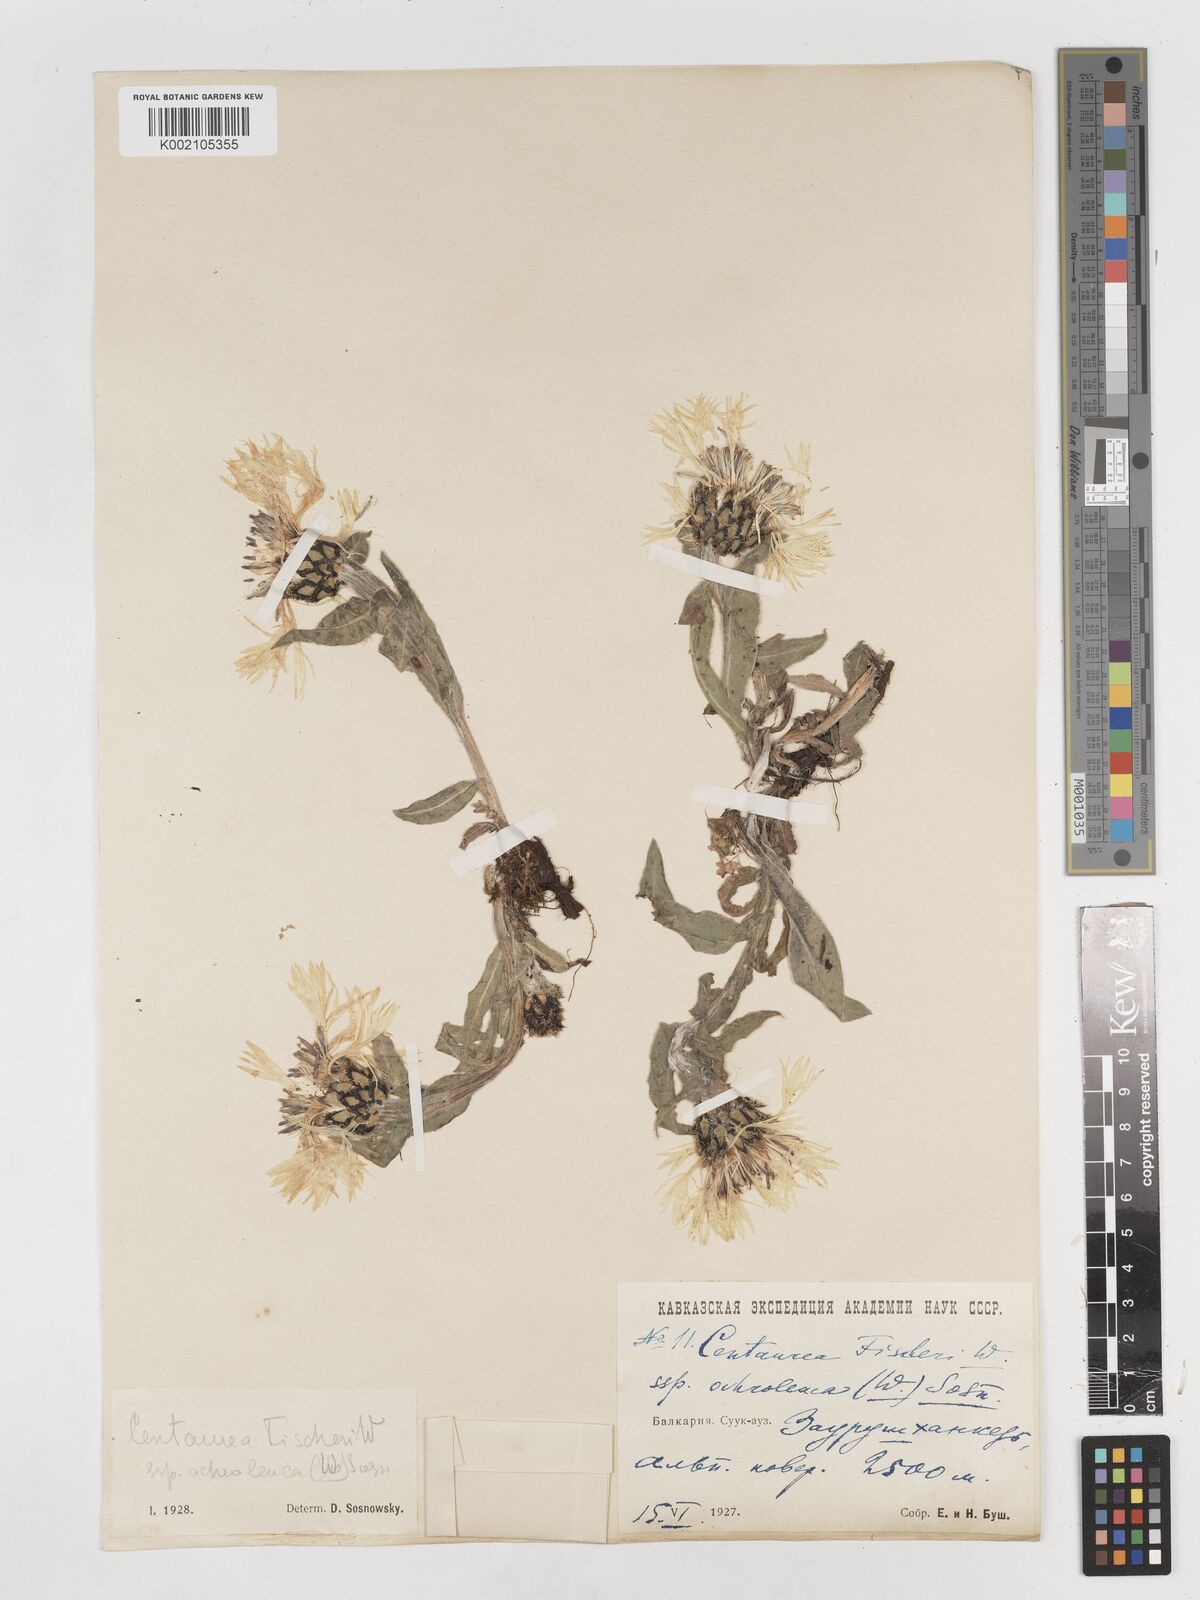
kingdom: Plantae
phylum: Tracheophyta
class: Magnoliopsida
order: Asterales
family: Asteraceae
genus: Centaurea
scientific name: Centaurea cheiranthifolia
